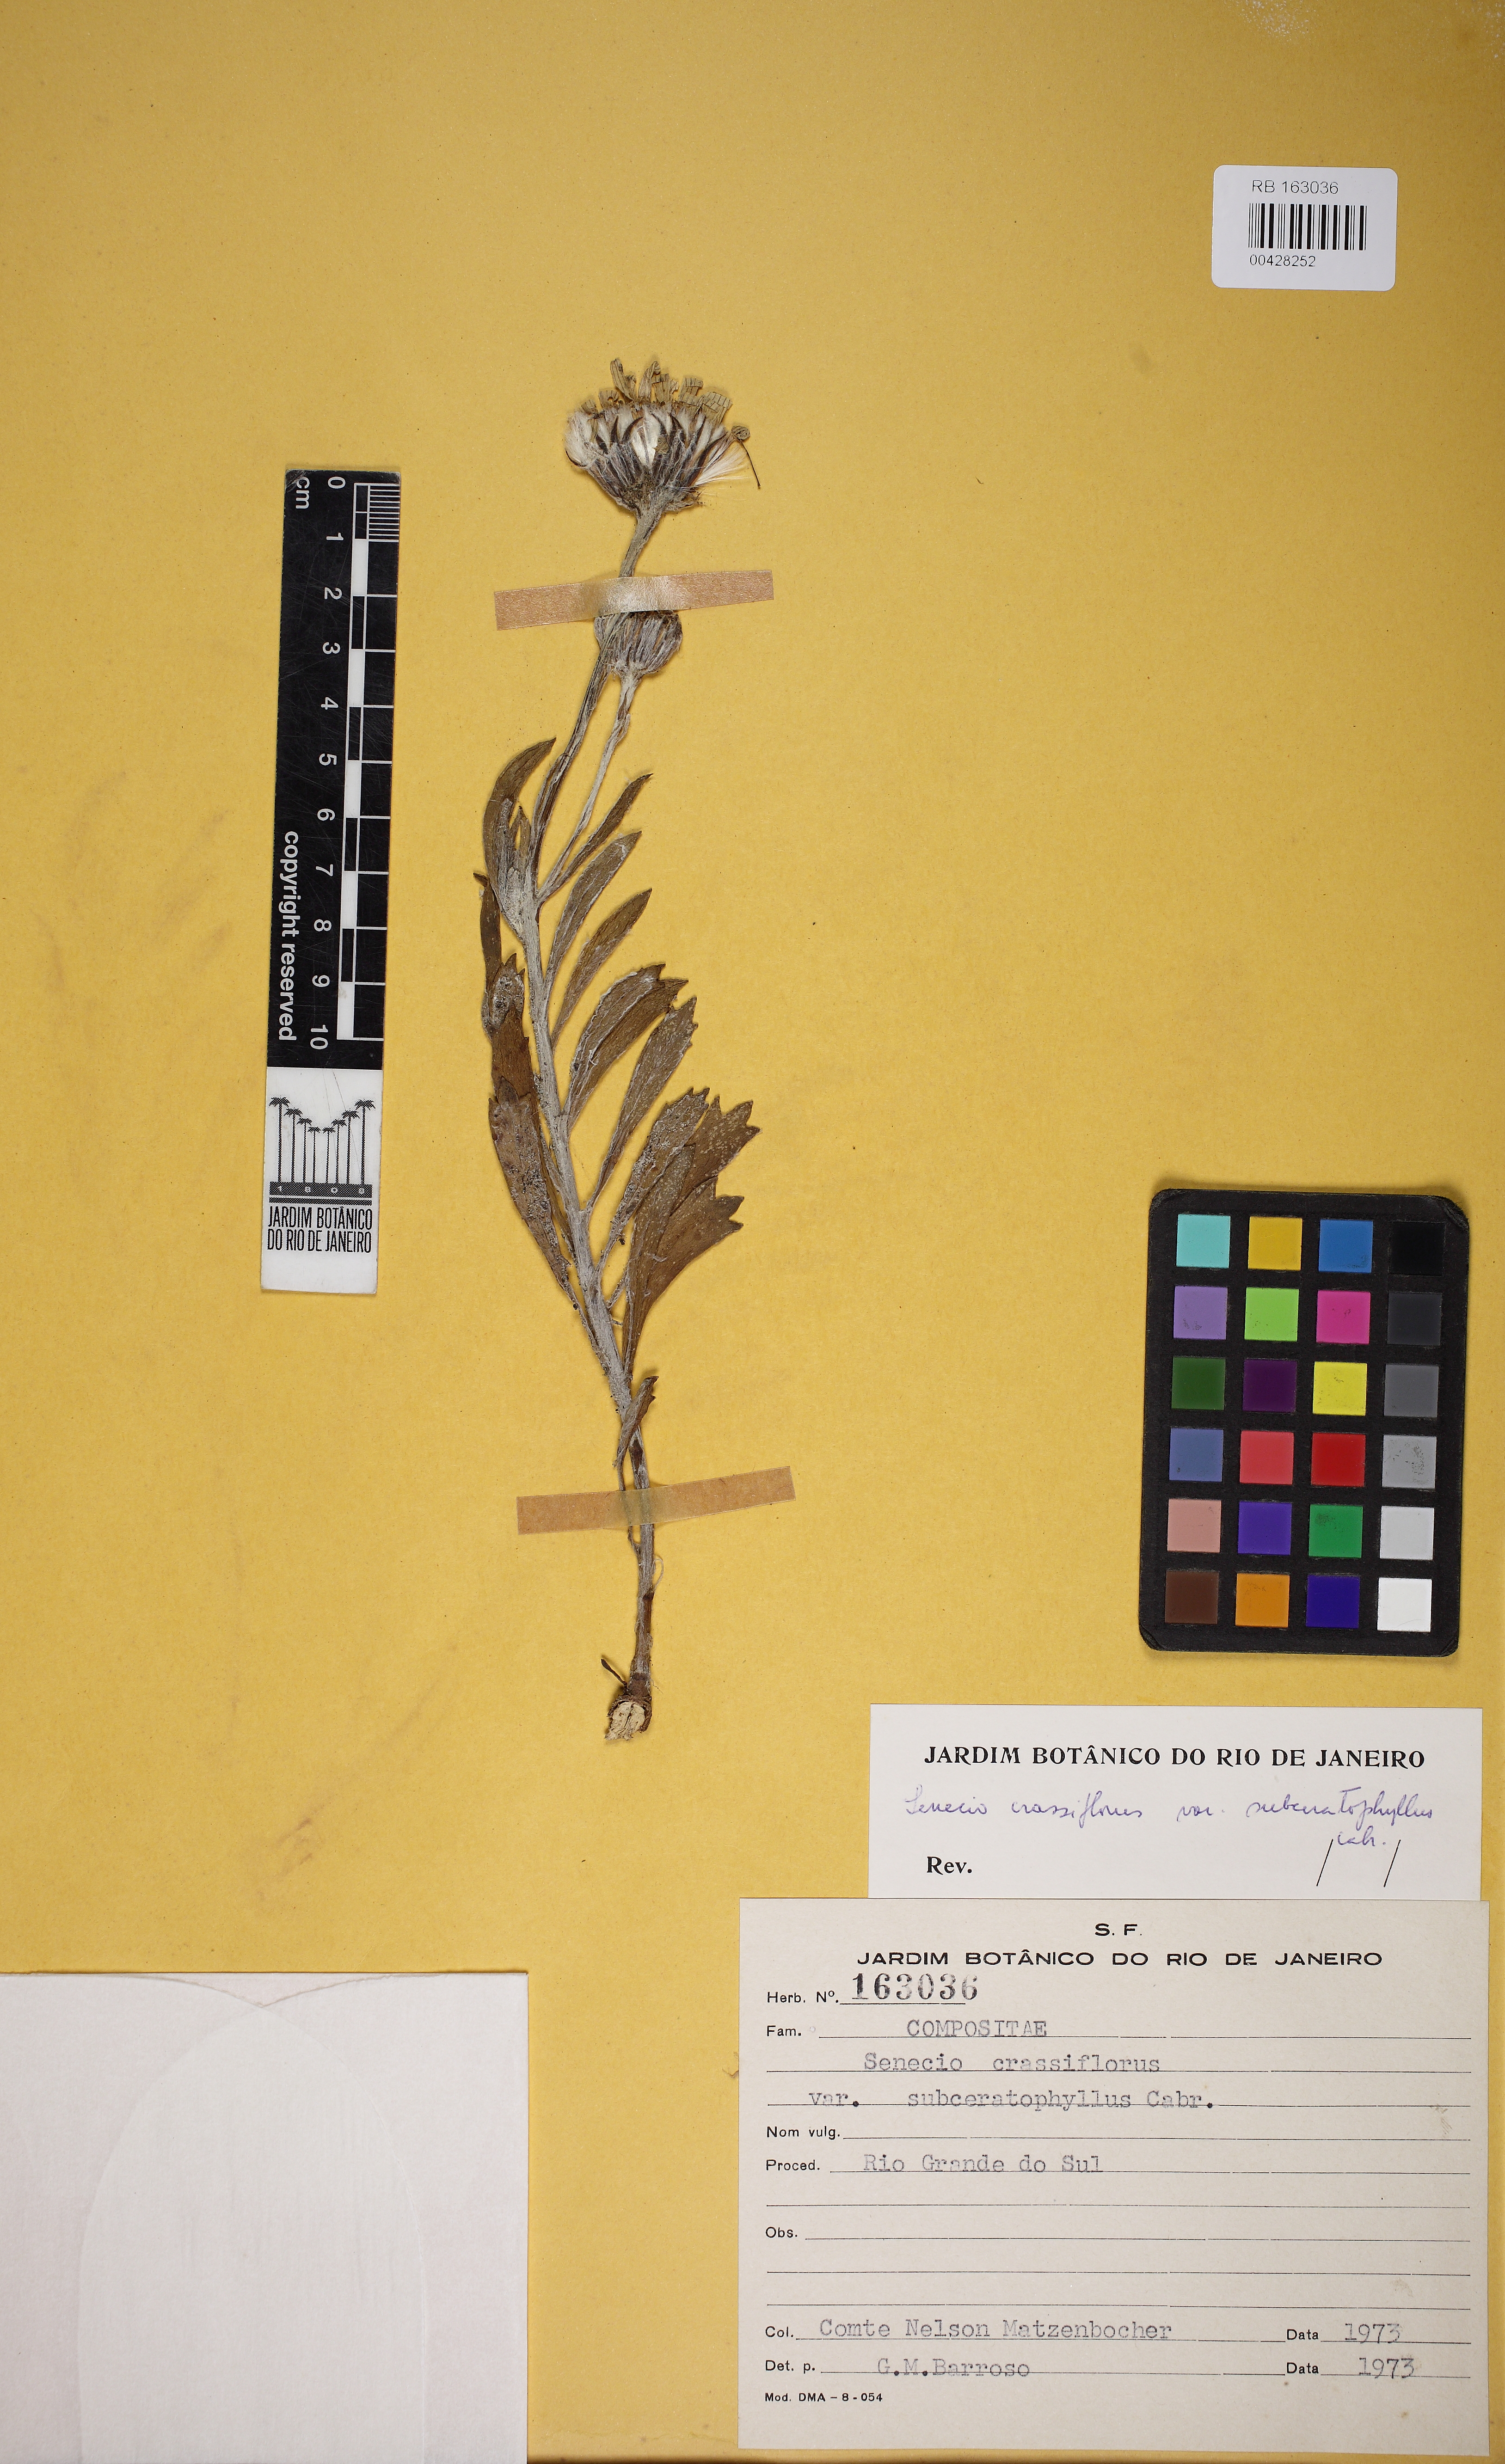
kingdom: Plantae
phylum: Tracheophyta
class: Magnoliopsida
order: Asterales
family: Asteraceae
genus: Senecio
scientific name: Senecio crassiflorus
